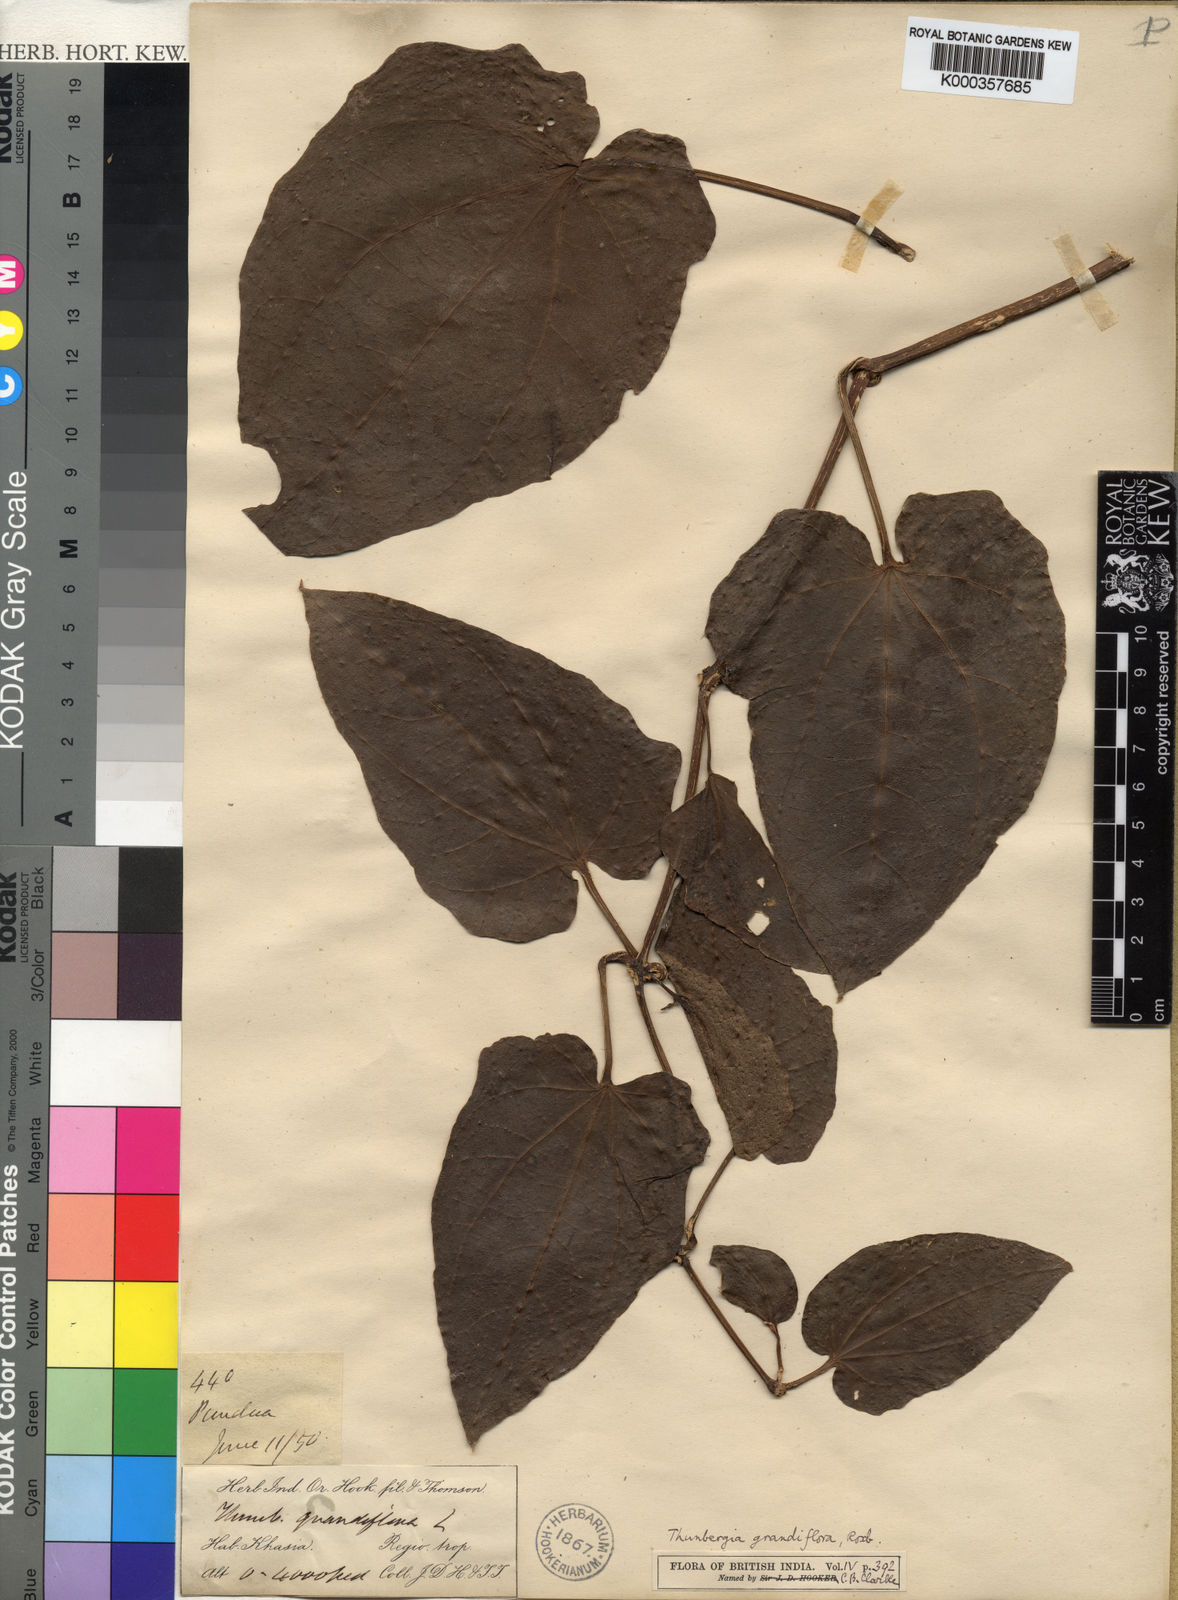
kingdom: Plantae
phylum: Tracheophyta
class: Magnoliopsida
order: Lamiales
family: Acanthaceae
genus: Thunbergia
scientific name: Thunbergia grandiflora
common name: Bengal trumpet
